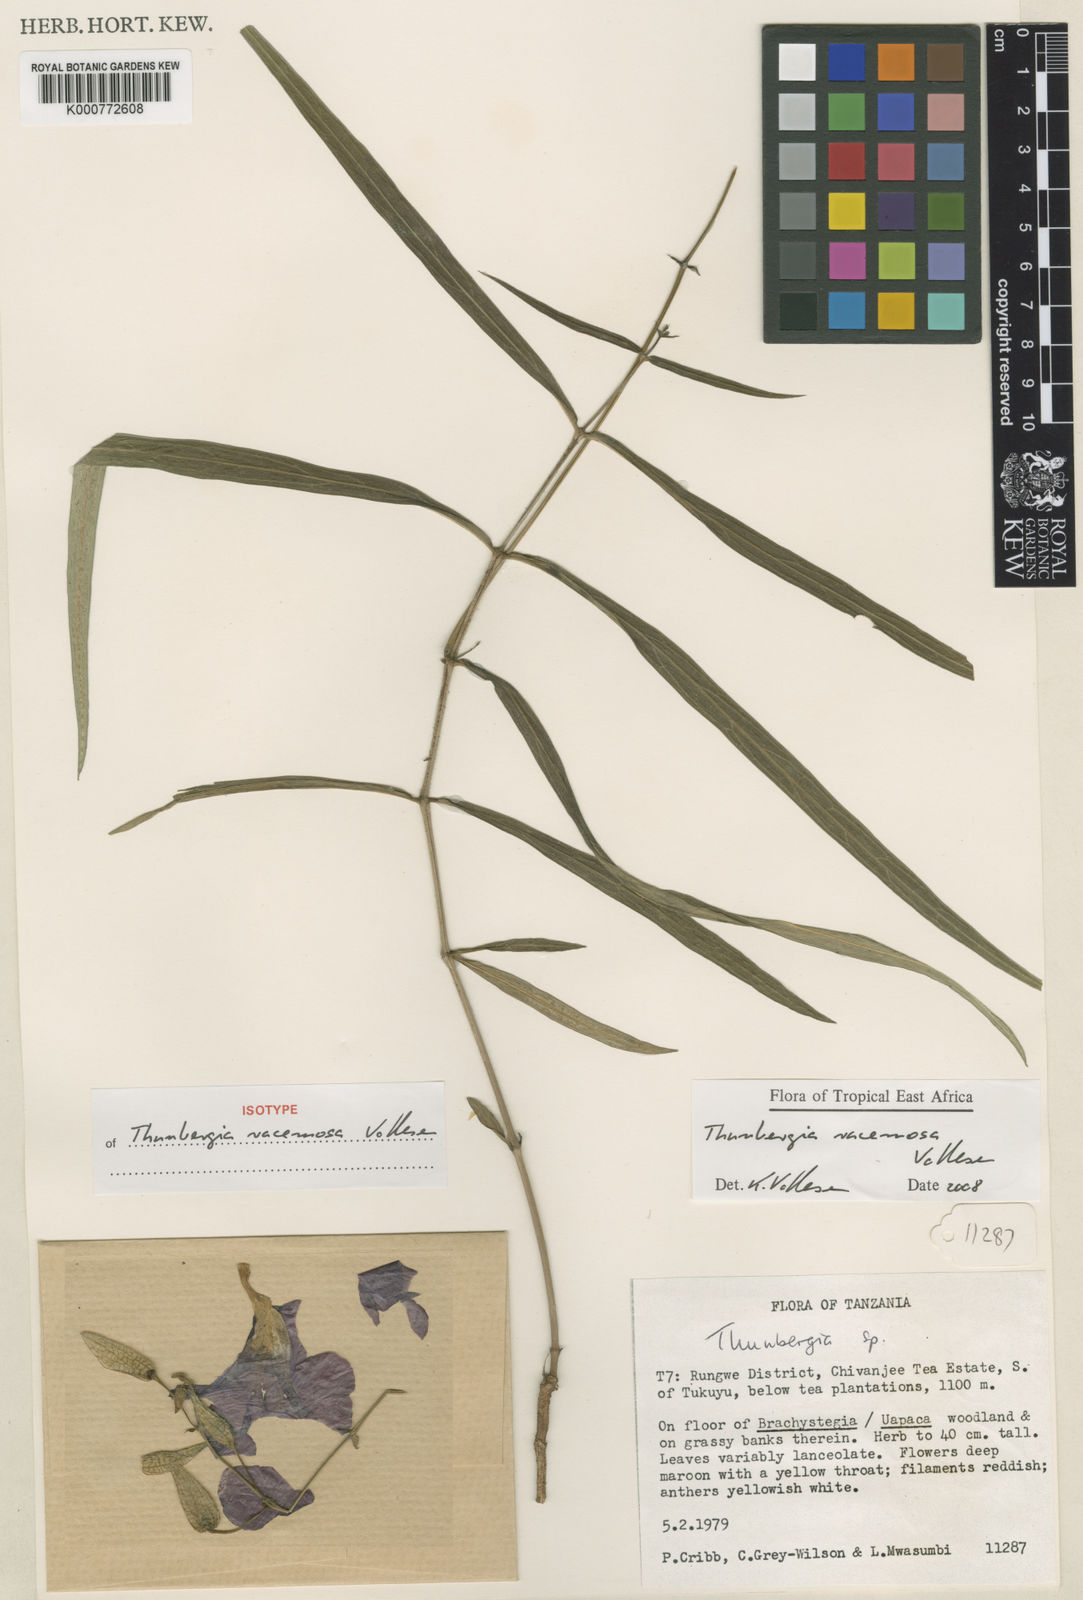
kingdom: Plantae
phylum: Tracheophyta
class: Magnoliopsida
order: Lamiales
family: Acanthaceae
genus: Thunbergia
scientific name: Thunbergia racemosa
